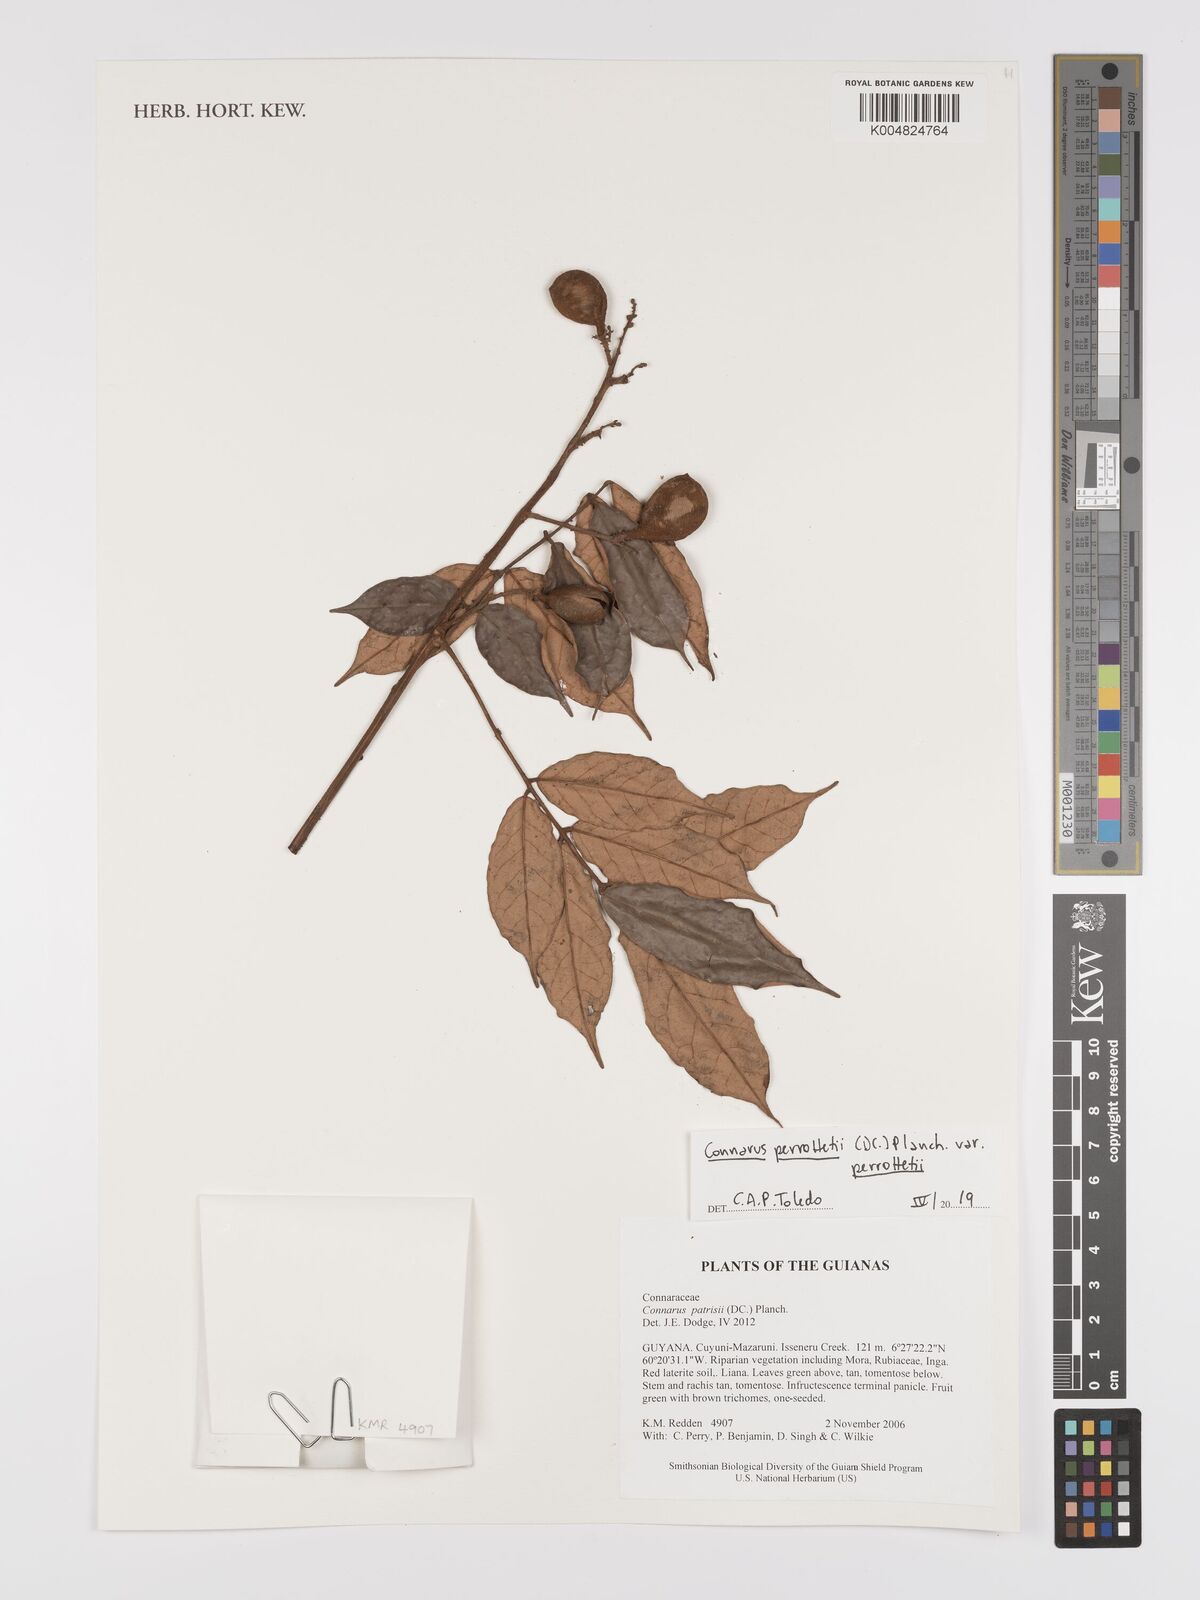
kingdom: Plantae
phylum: Tracheophyta
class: Magnoliopsida
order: Oxalidales
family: Connaraceae
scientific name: Connaraceae
